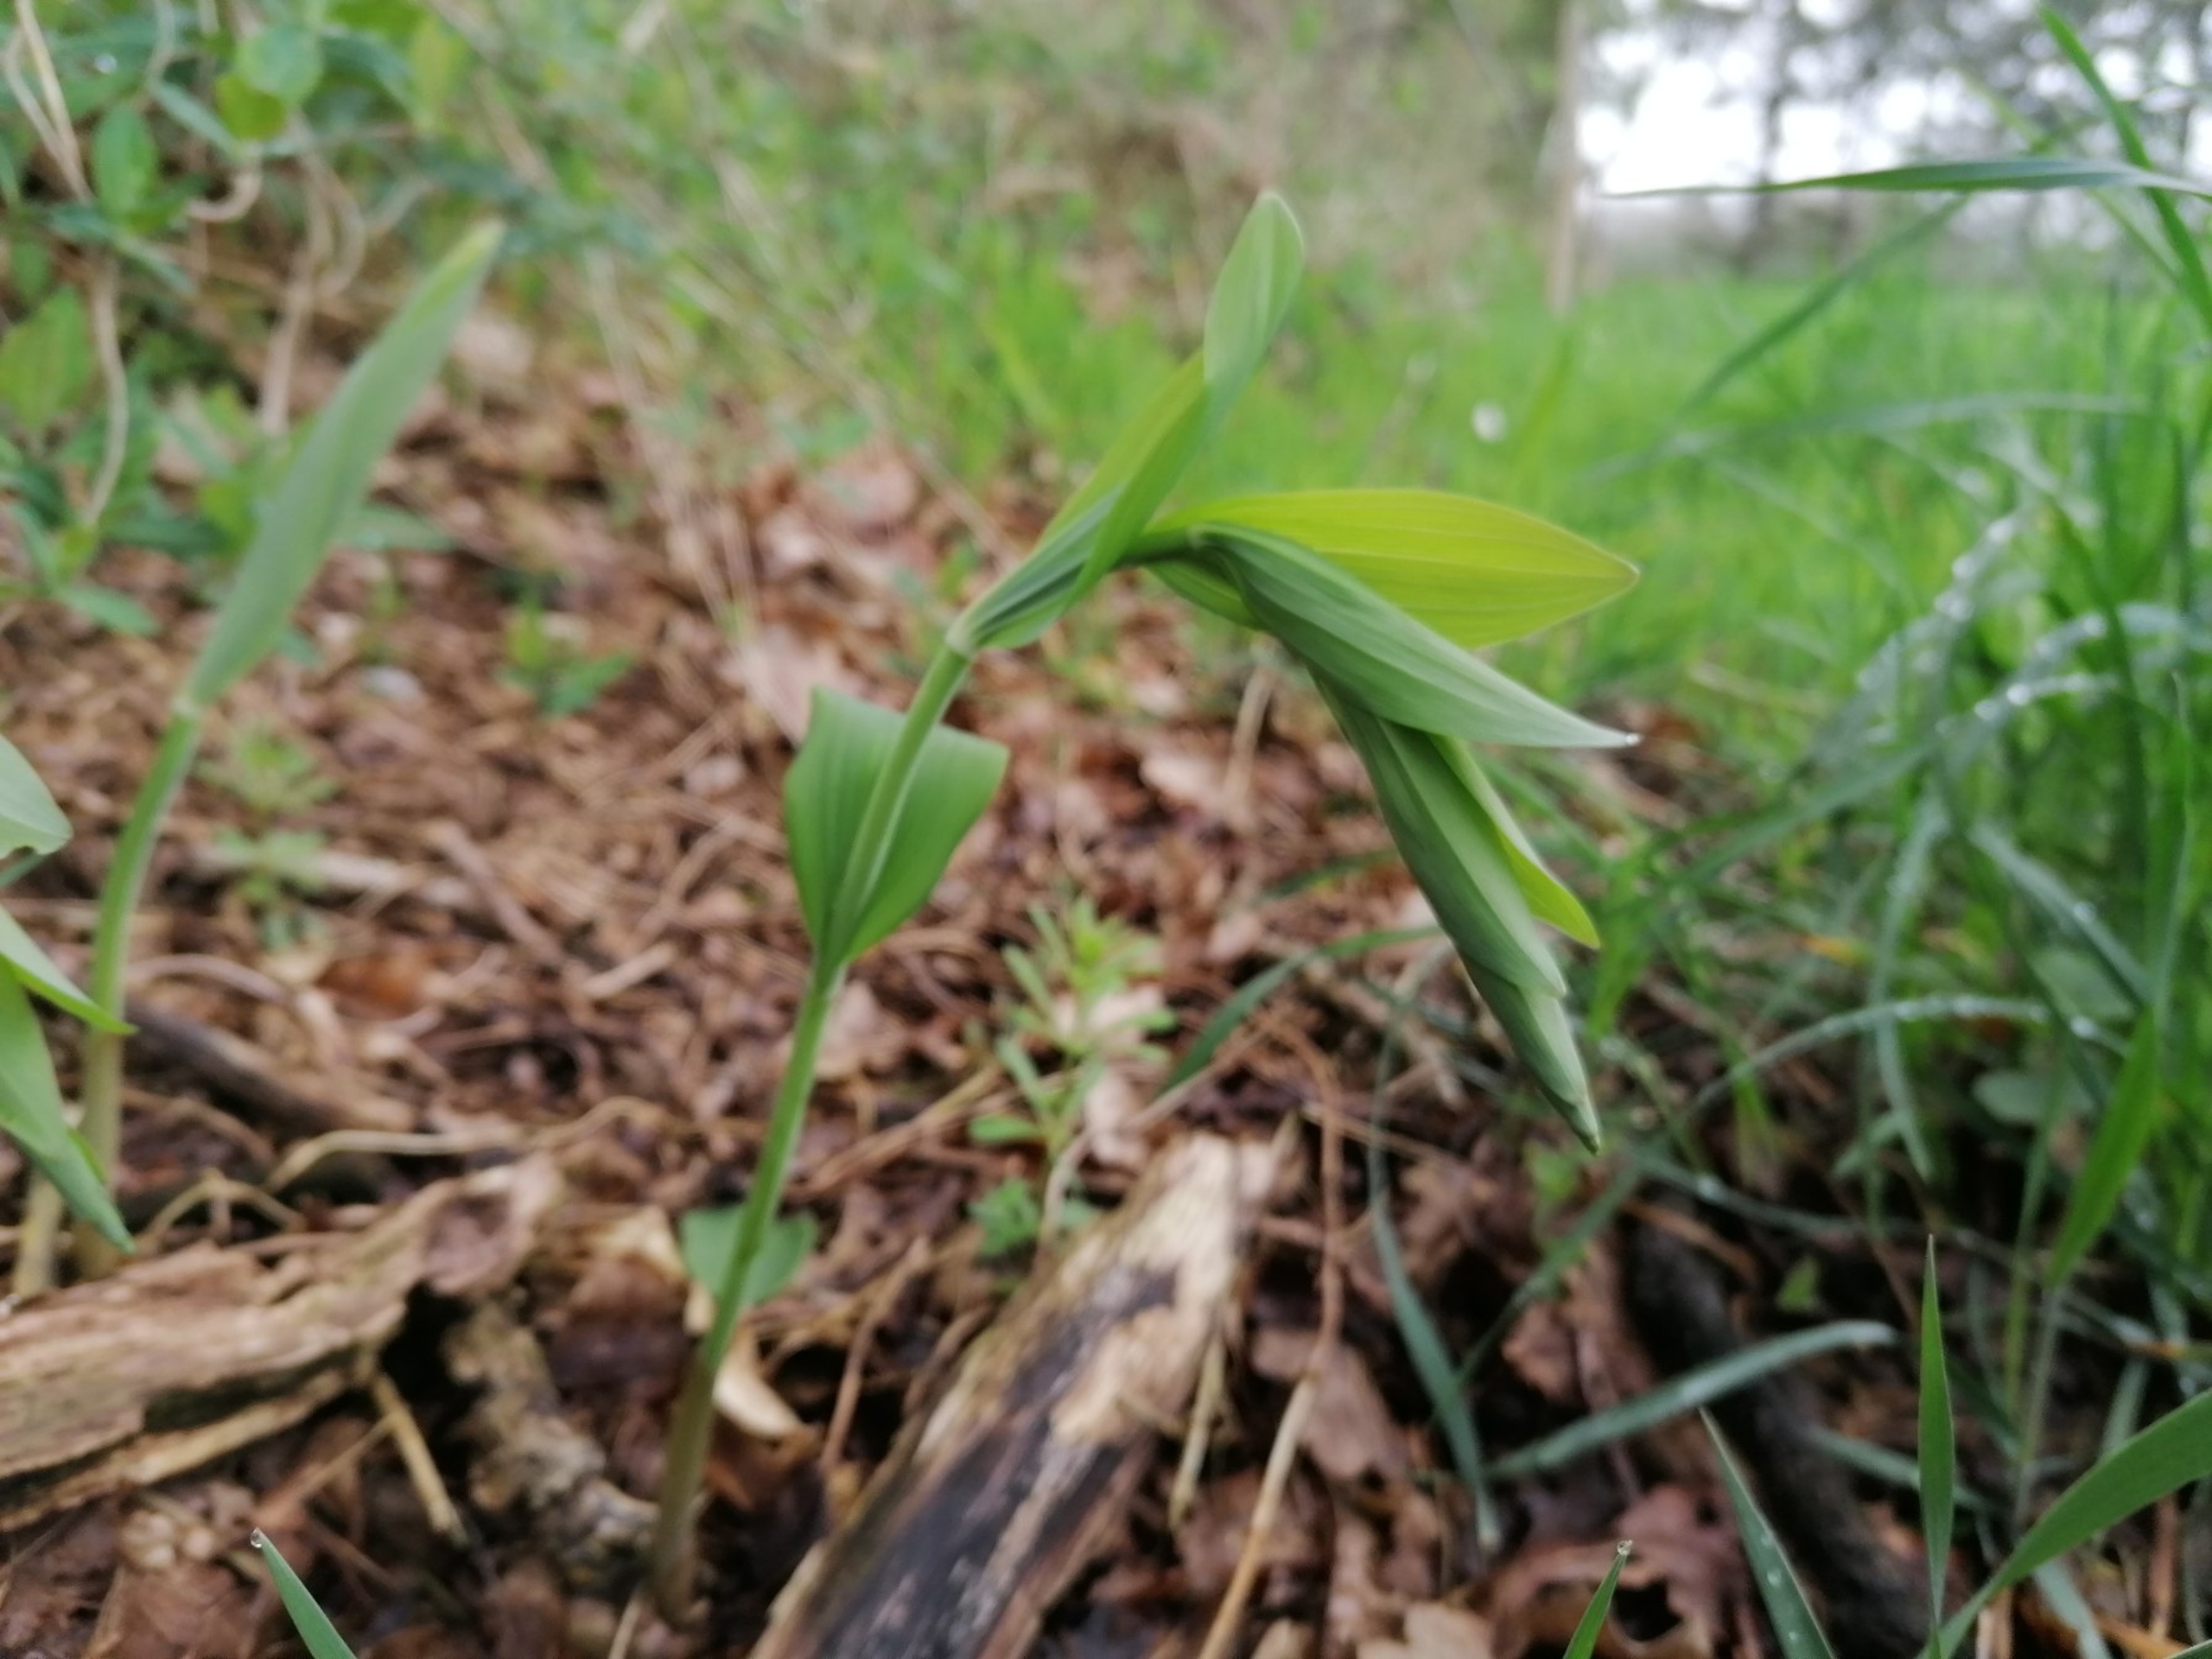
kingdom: Plantae
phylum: Tracheophyta
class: Liliopsida
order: Asparagales
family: Asparagaceae
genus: Polygonatum
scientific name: Polygonatum multiflorum
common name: Stor konval
